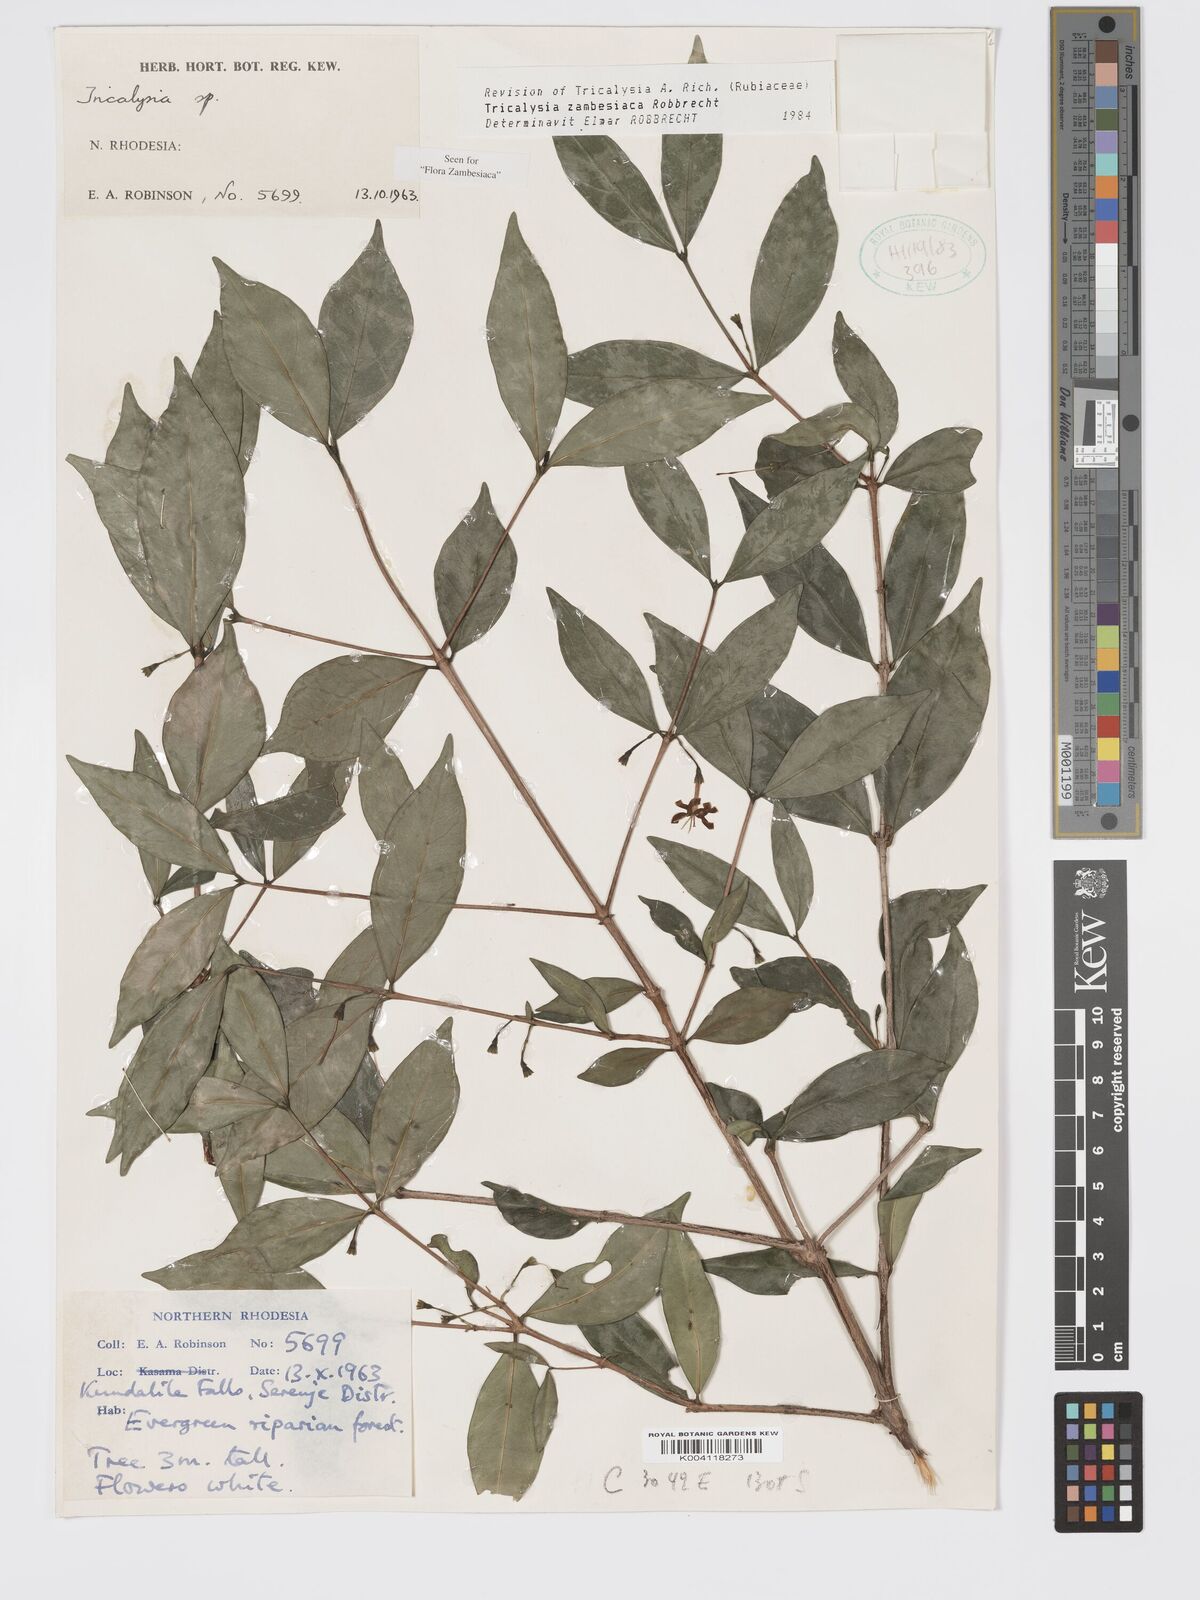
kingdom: Plantae
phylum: Tracheophyta
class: Magnoliopsida
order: Gentianales
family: Rubiaceae
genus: Tricalysia
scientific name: Tricalysia
